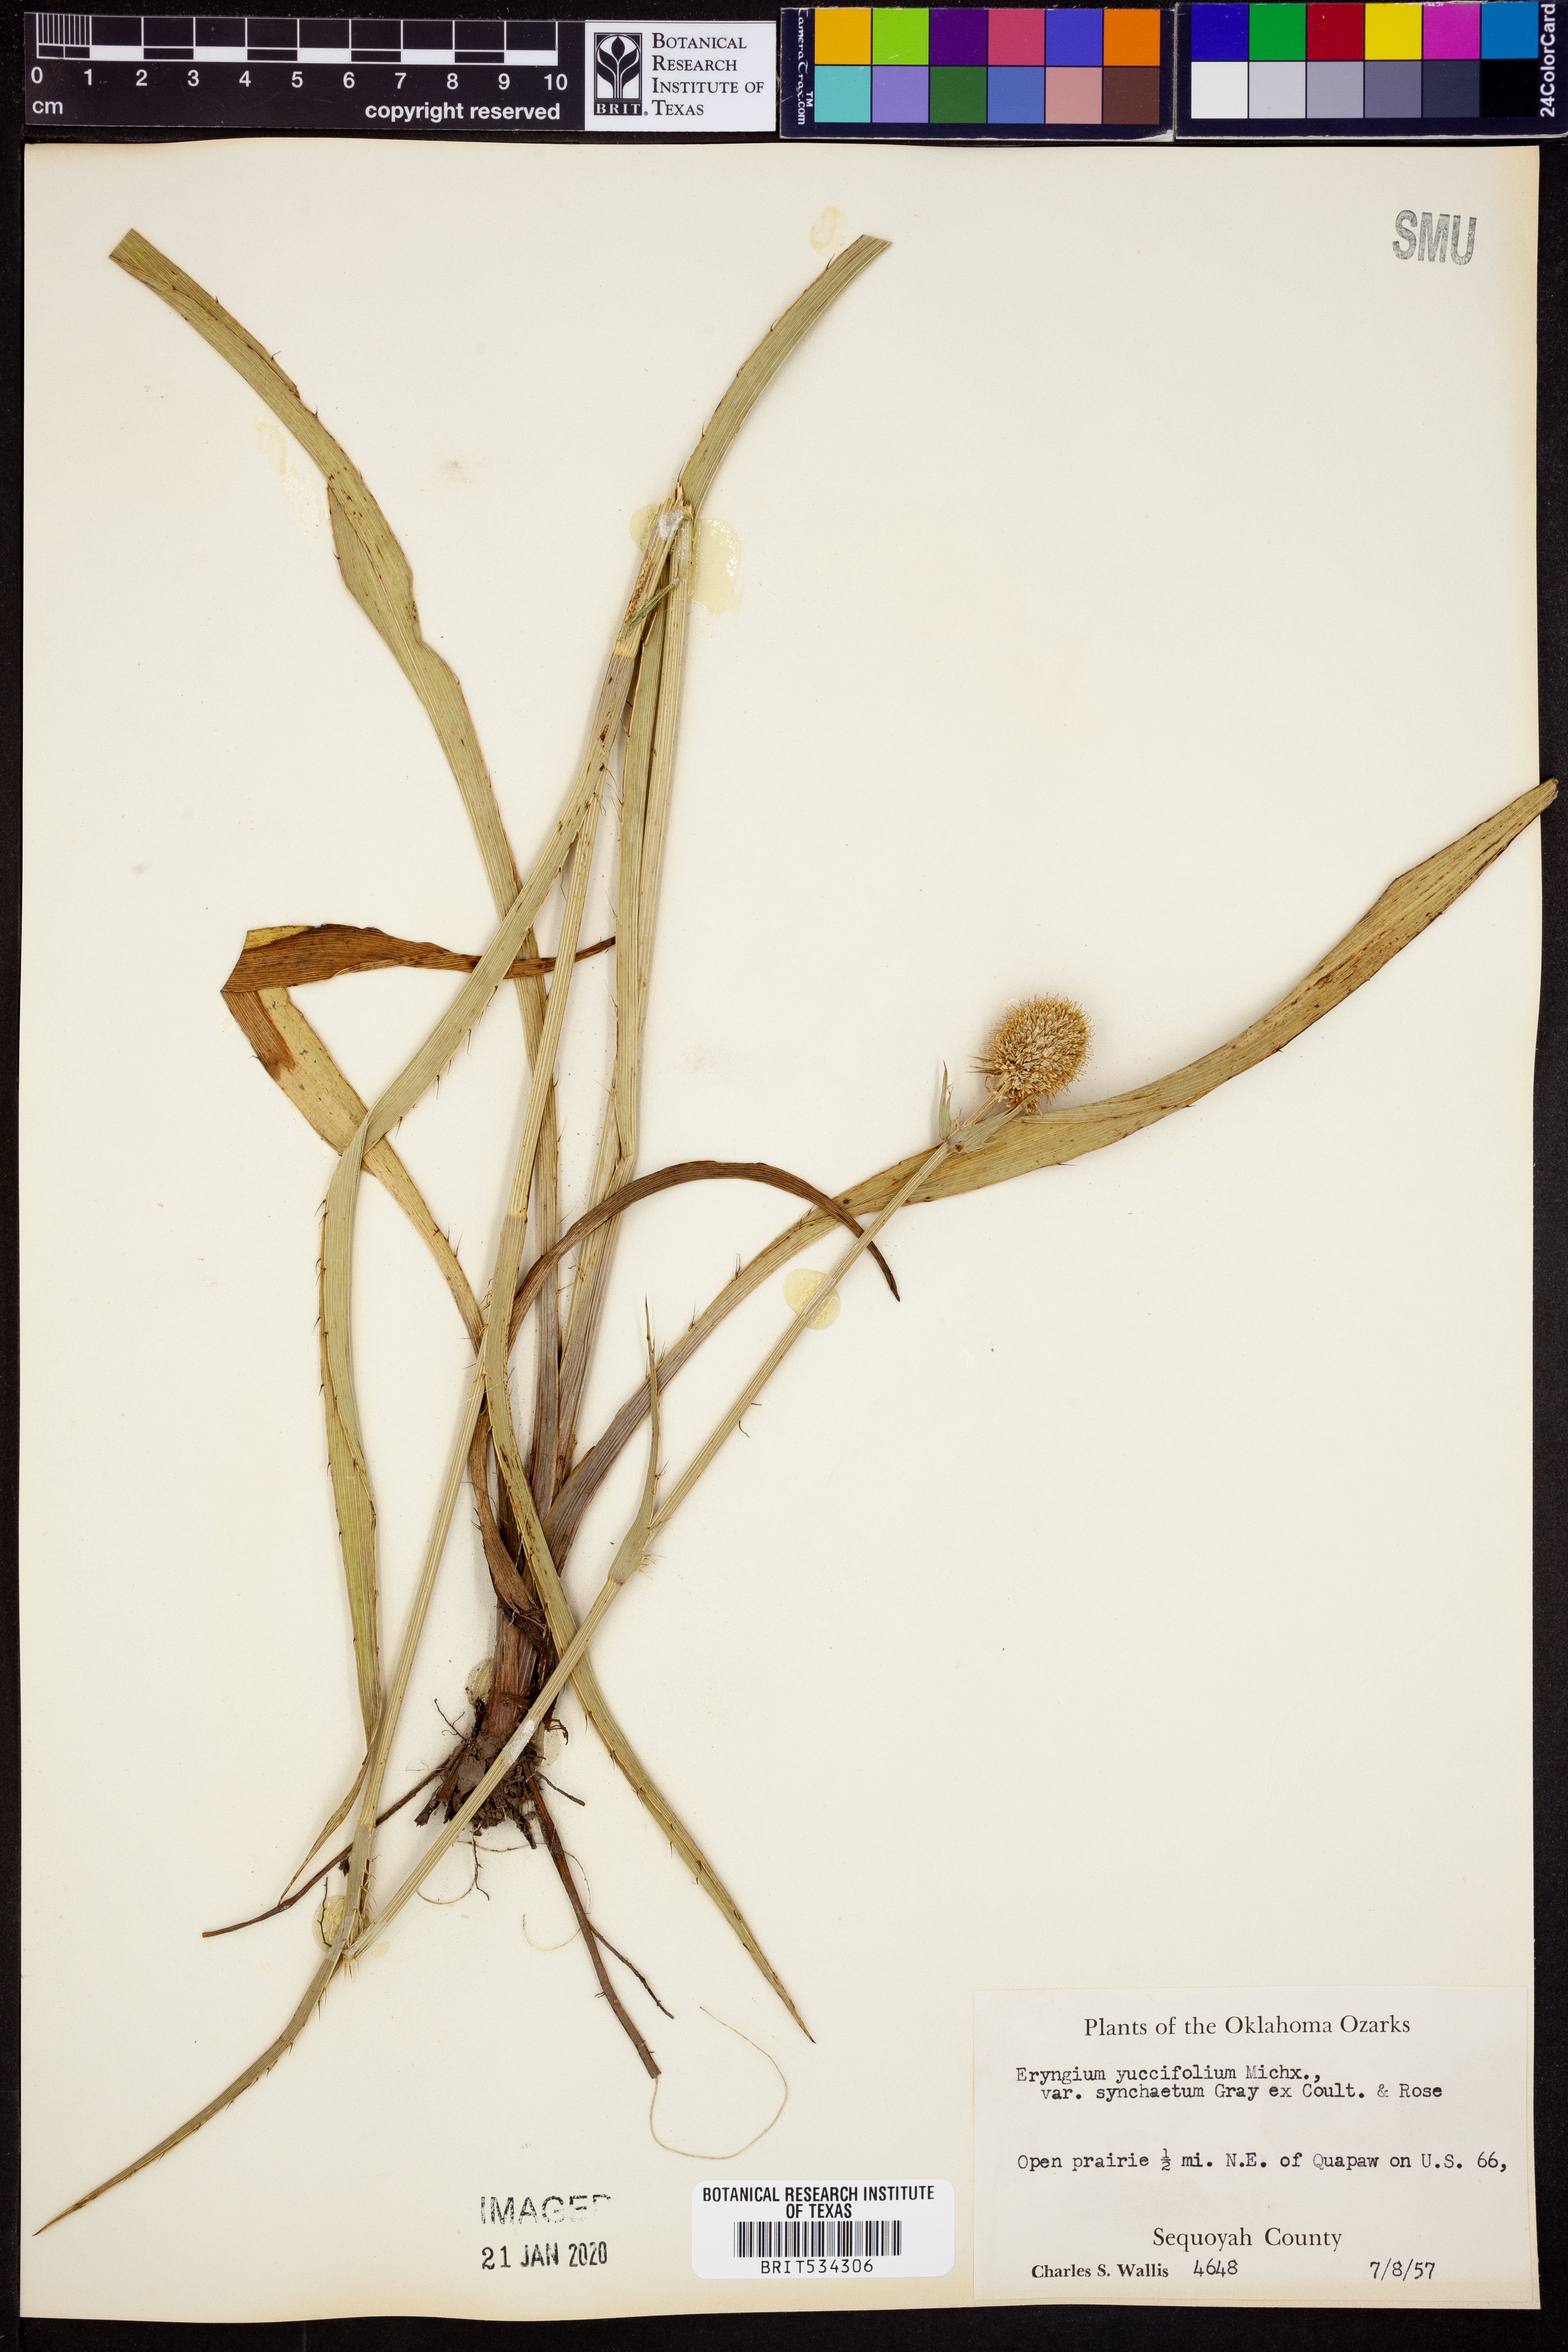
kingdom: Plantae
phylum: Tracheophyta
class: Magnoliopsida
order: Apiales
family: Apiaceae
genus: Eryngium
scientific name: Eryngium yuccifolium
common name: Button eryngo
